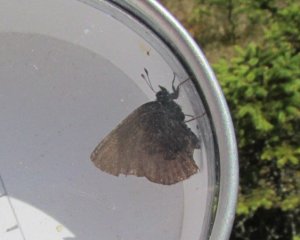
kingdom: Animalia
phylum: Arthropoda
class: Insecta
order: Lepidoptera
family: Lycaenidae
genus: Incisalia
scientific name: Incisalia irioides
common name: Brown Elfin
